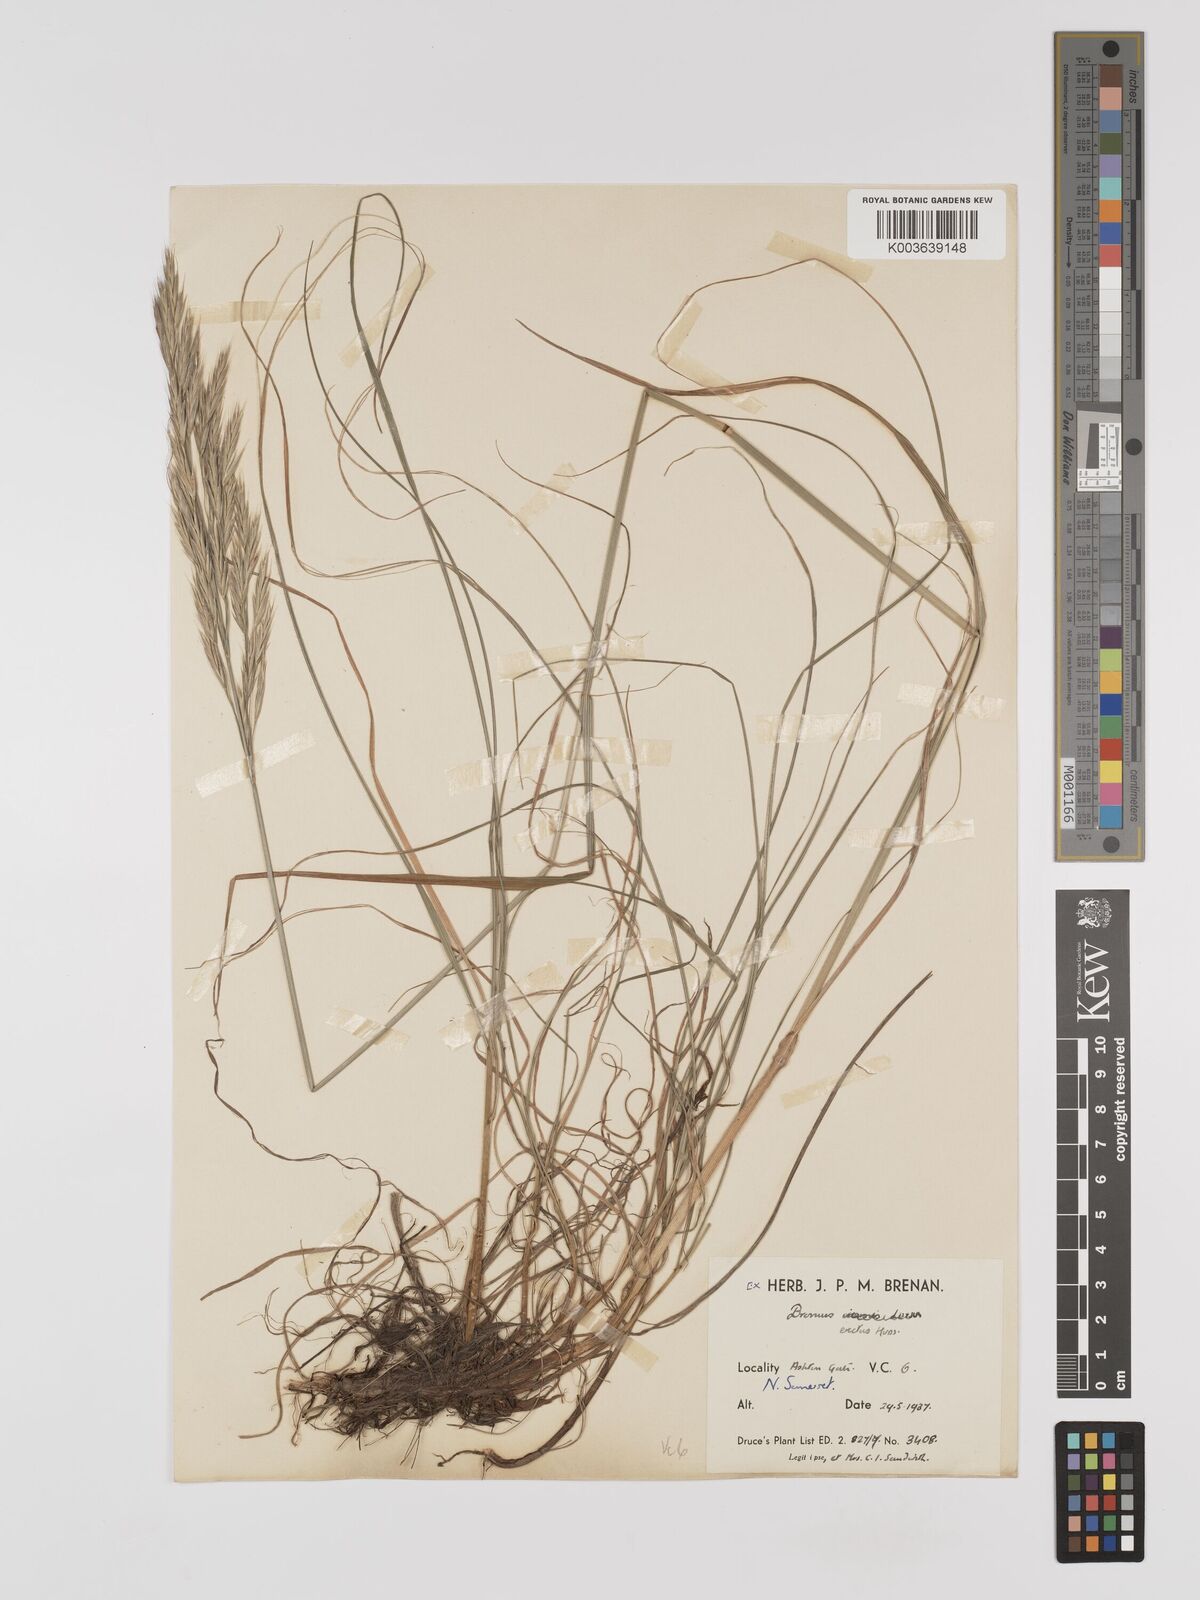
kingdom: Plantae
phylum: Tracheophyta
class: Liliopsida
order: Poales
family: Poaceae
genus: Bromus
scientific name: Bromus erectus
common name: Erect brome
